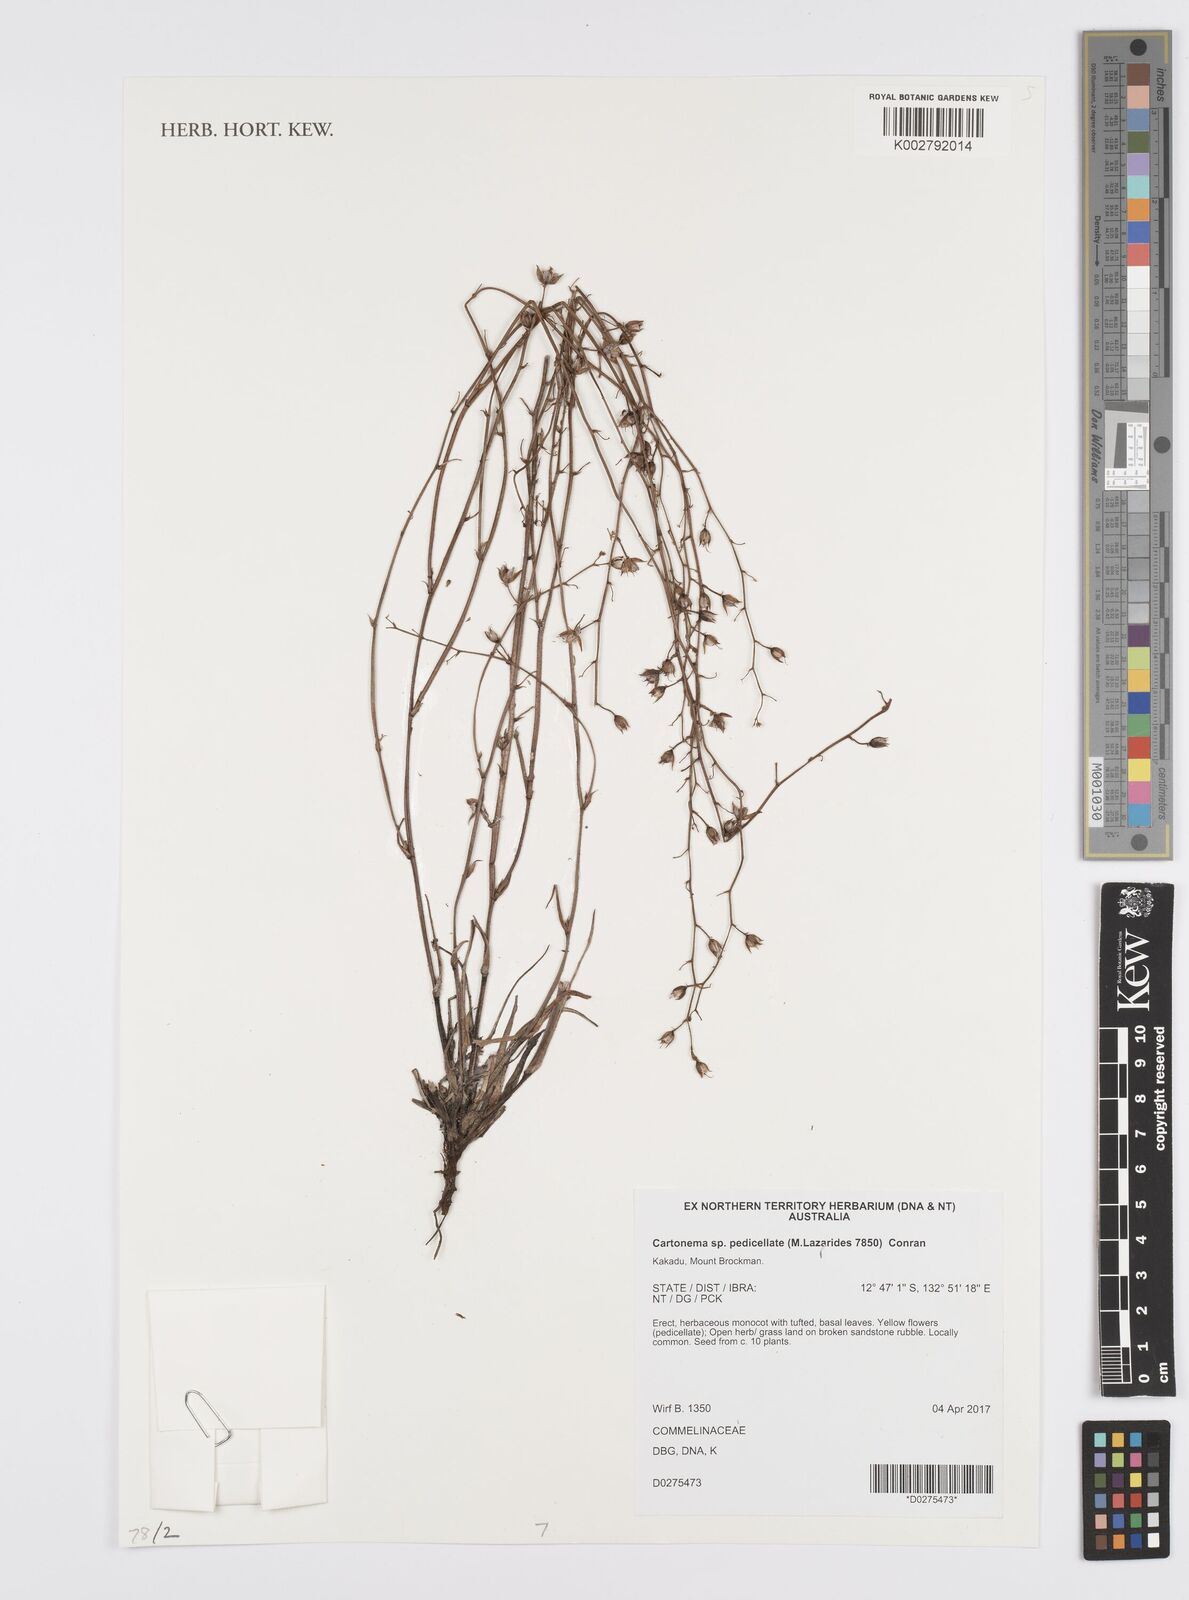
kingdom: Plantae
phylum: Tracheophyta
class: Liliopsida
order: Commelinales
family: Commelinaceae
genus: Cartonema
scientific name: Cartonema
